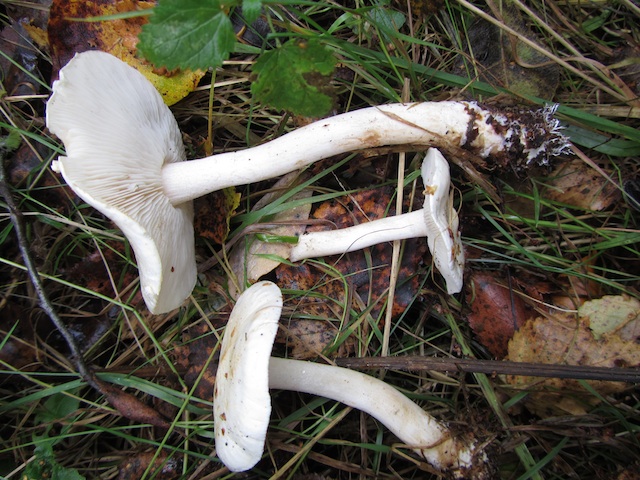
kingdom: Fungi
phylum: Basidiomycota
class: Agaricomycetes
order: Agaricales
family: Tricholomataceae
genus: Tricholoma
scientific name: Tricholoma lascivum
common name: stinkende ridderhat
